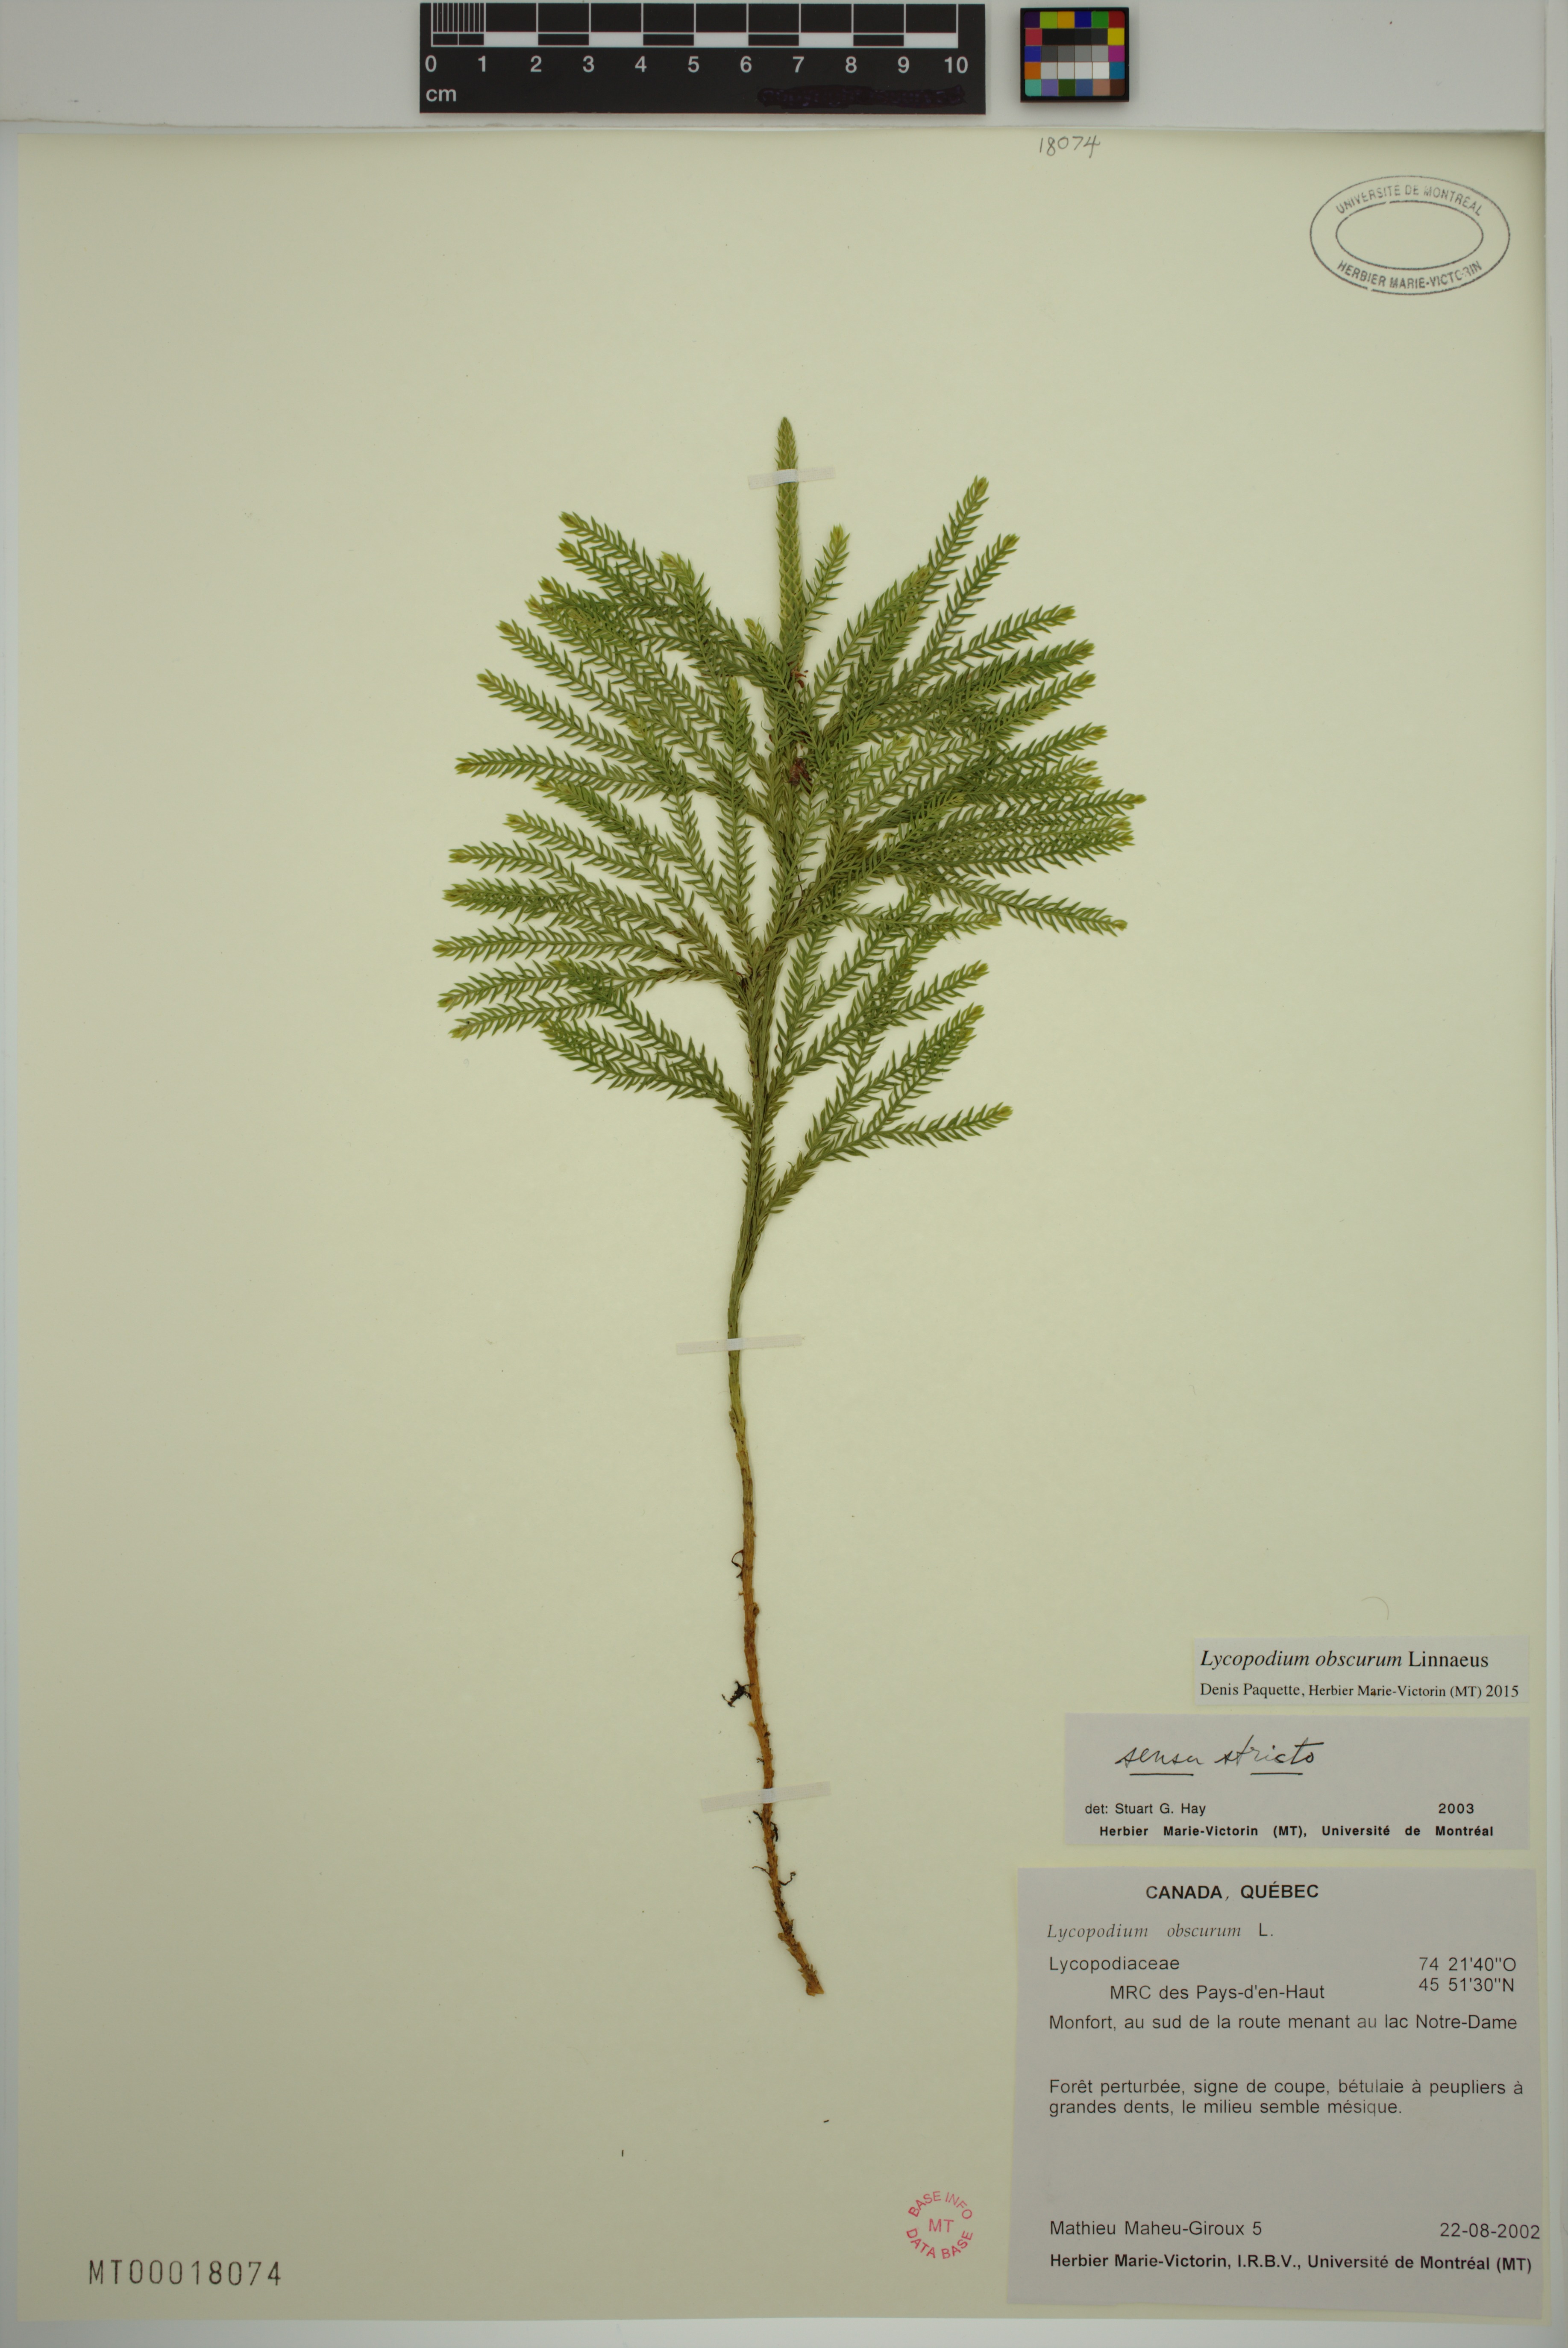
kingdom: Plantae
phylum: Tracheophyta
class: Lycopodiopsida
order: Lycopodiales
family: Lycopodiaceae
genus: Dendrolycopodium
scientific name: Dendrolycopodium obscurum
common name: Common ground-pine
